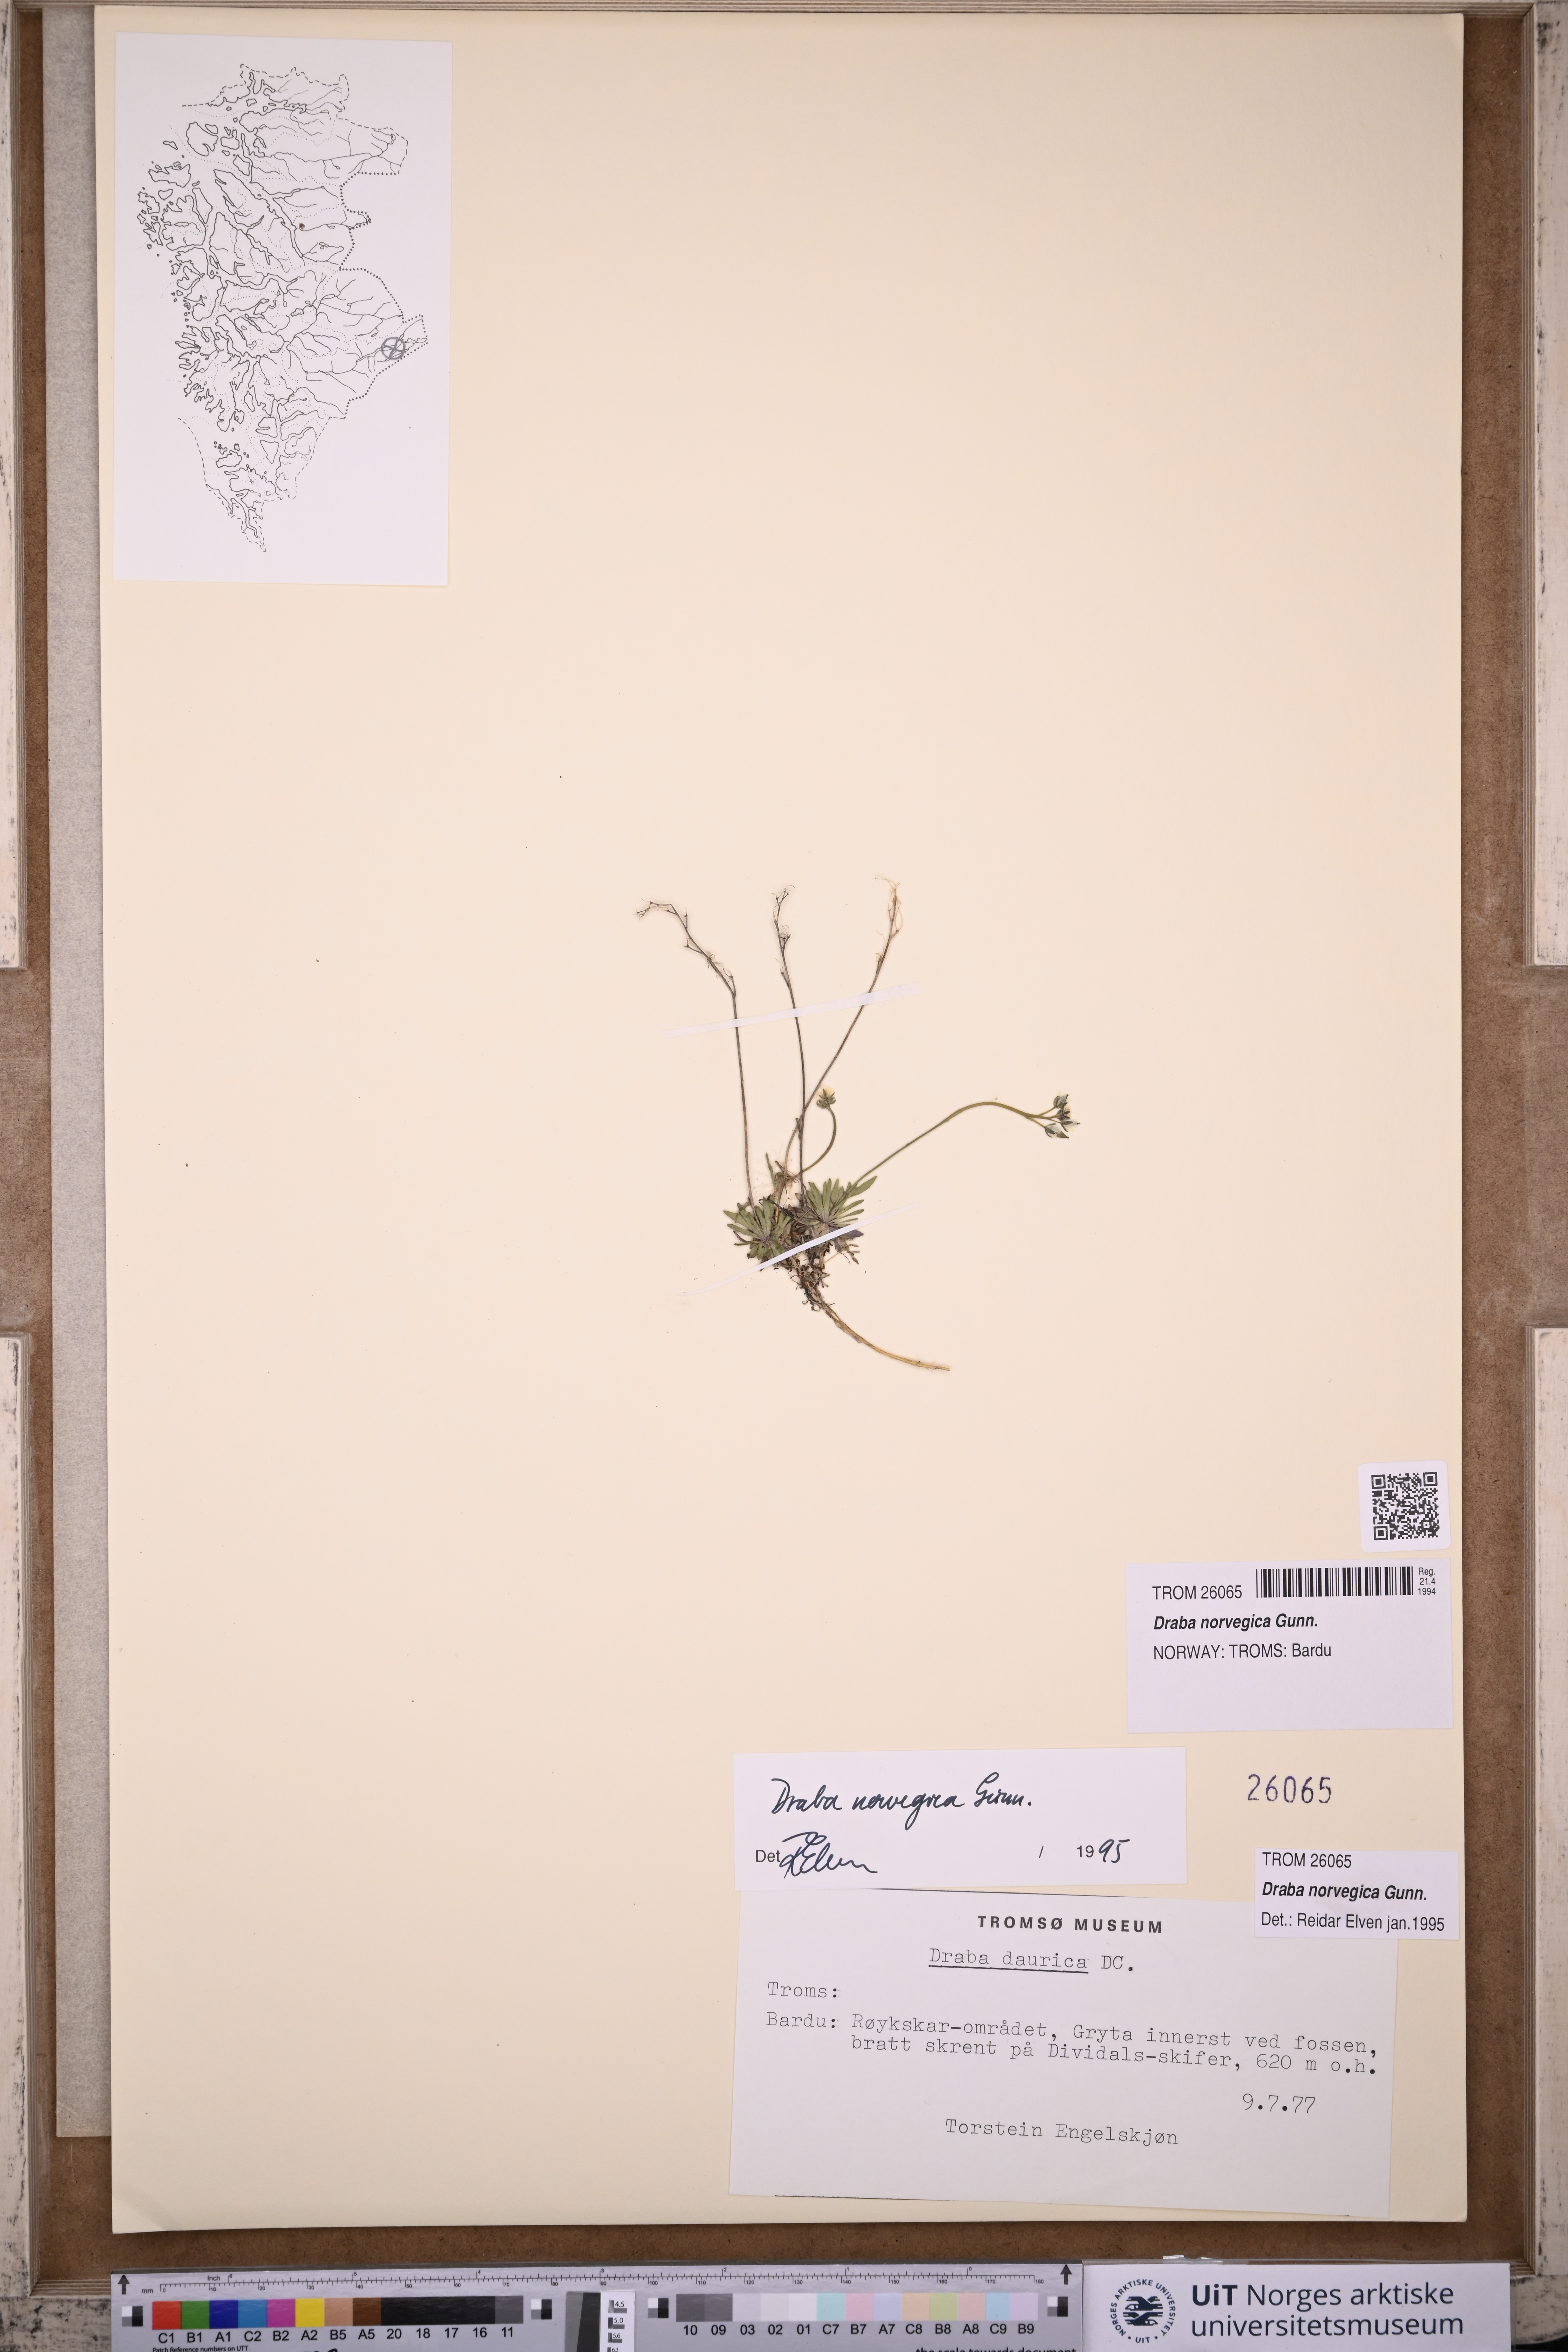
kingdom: Plantae
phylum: Tracheophyta
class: Magnoliopsida
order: Brassicales
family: Brassicaceae
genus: Draba
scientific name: Draba norvegica
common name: Rock whitlowgrass
